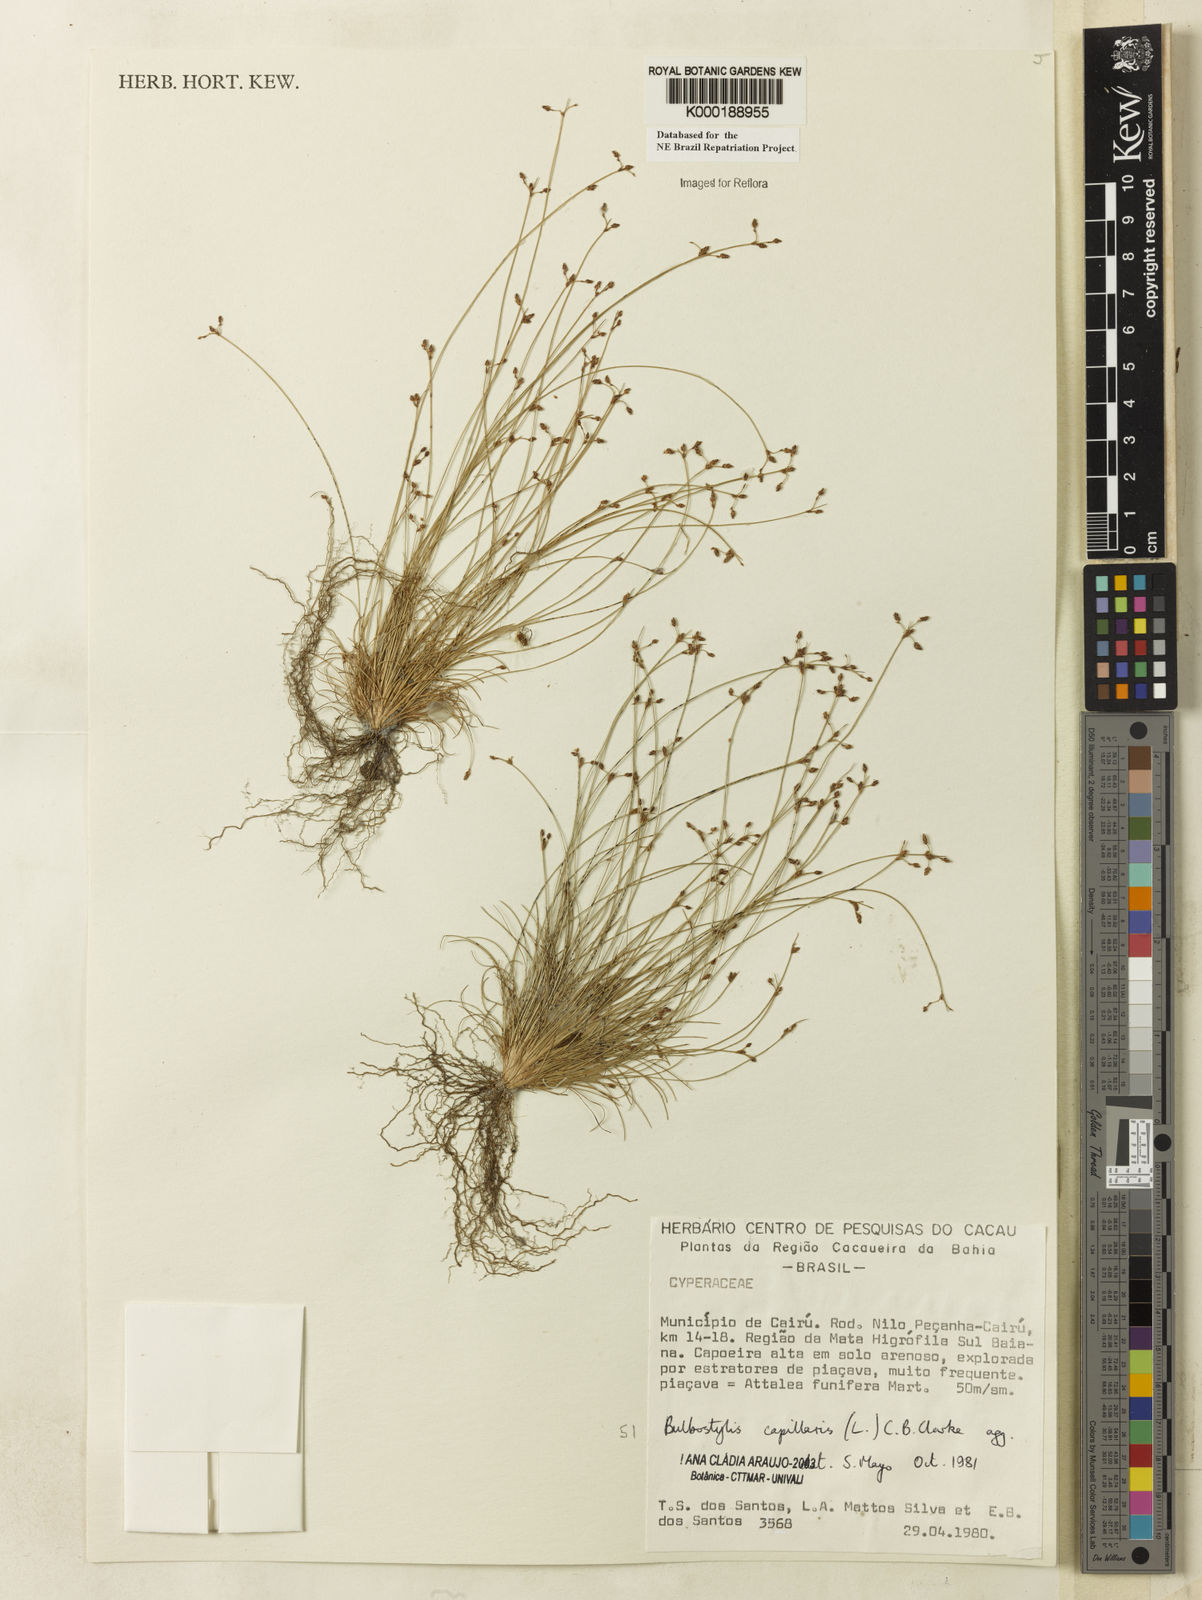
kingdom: Plantae
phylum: Tracheophyta
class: Liliopsida
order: Poales
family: Cyperaceae
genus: Bulbostylis
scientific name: Bulbostylis capillaris
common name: Densetuft hairsedge
